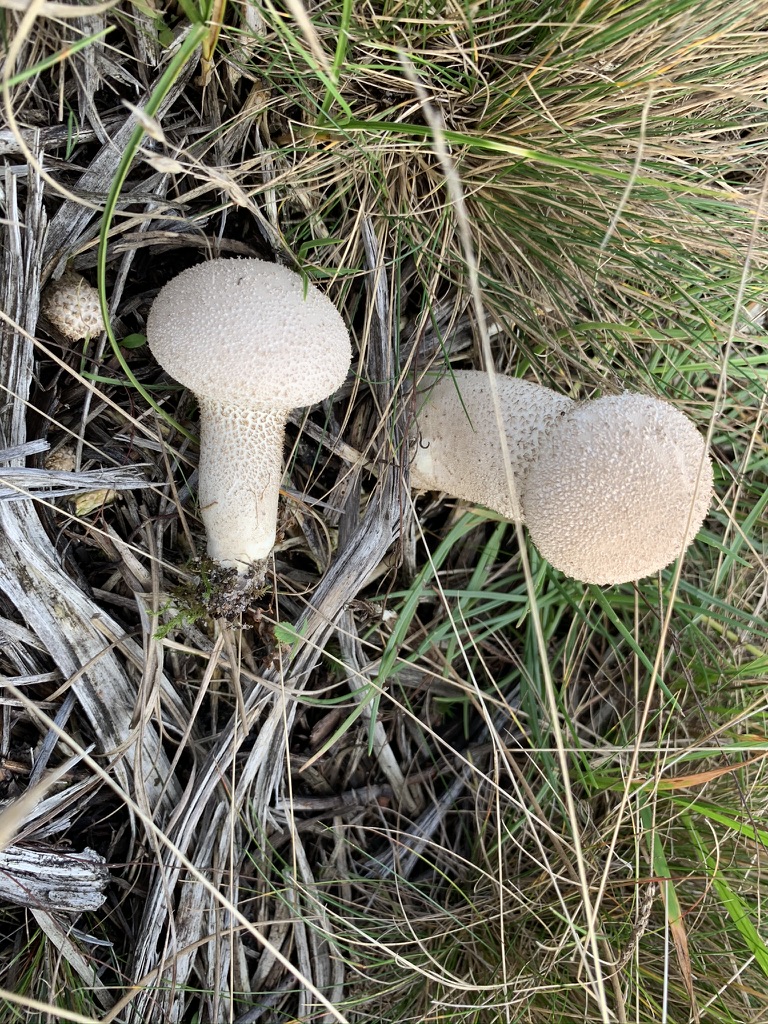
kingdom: Fungi
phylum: Basidiomycota
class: Agaricomycetes
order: Agaricales
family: Lycoperdaceae
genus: Lycoperdon
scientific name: Lycoperdon excipuliforme
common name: højstokket støvbold
